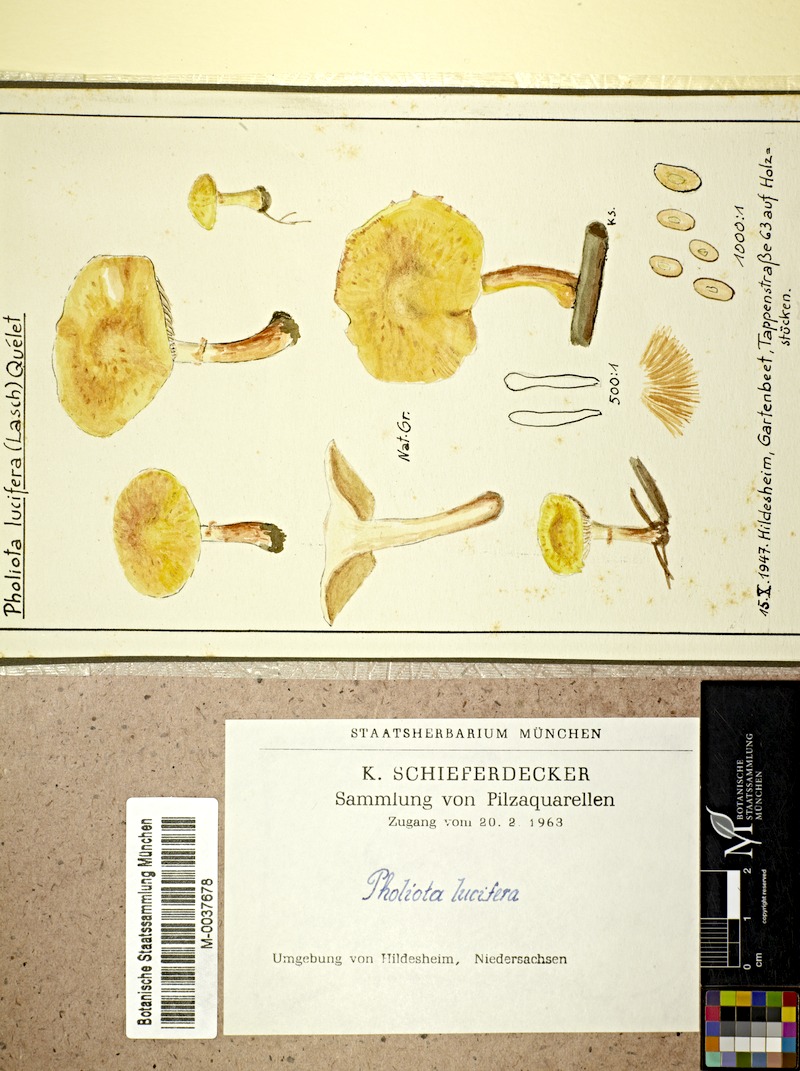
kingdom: Fungi
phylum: Basidiomycota
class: Agaricomycetes
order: Agaricales
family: Strophariaceae
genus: Pholiota
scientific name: Pholiota lucifera
